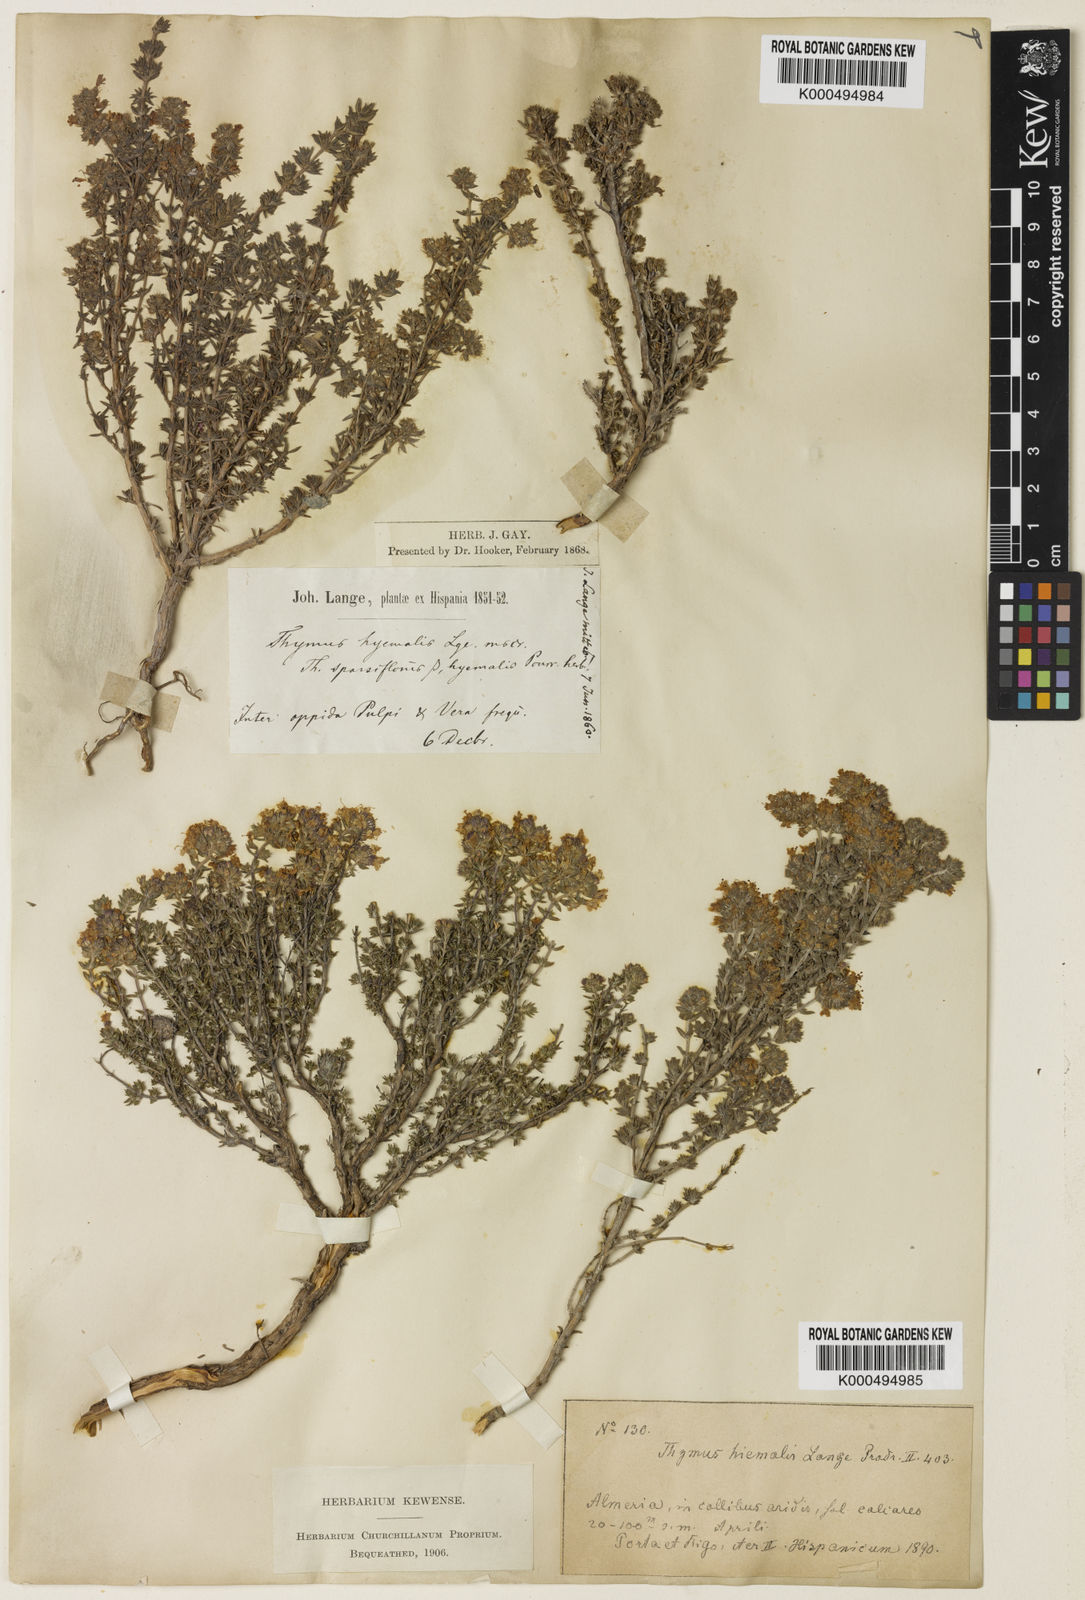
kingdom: Plantae
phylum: Tracheophyta
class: Magnoliopsida
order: Lamiales
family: Lamiaceae
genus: Thymus
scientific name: Thymus hyemalis
